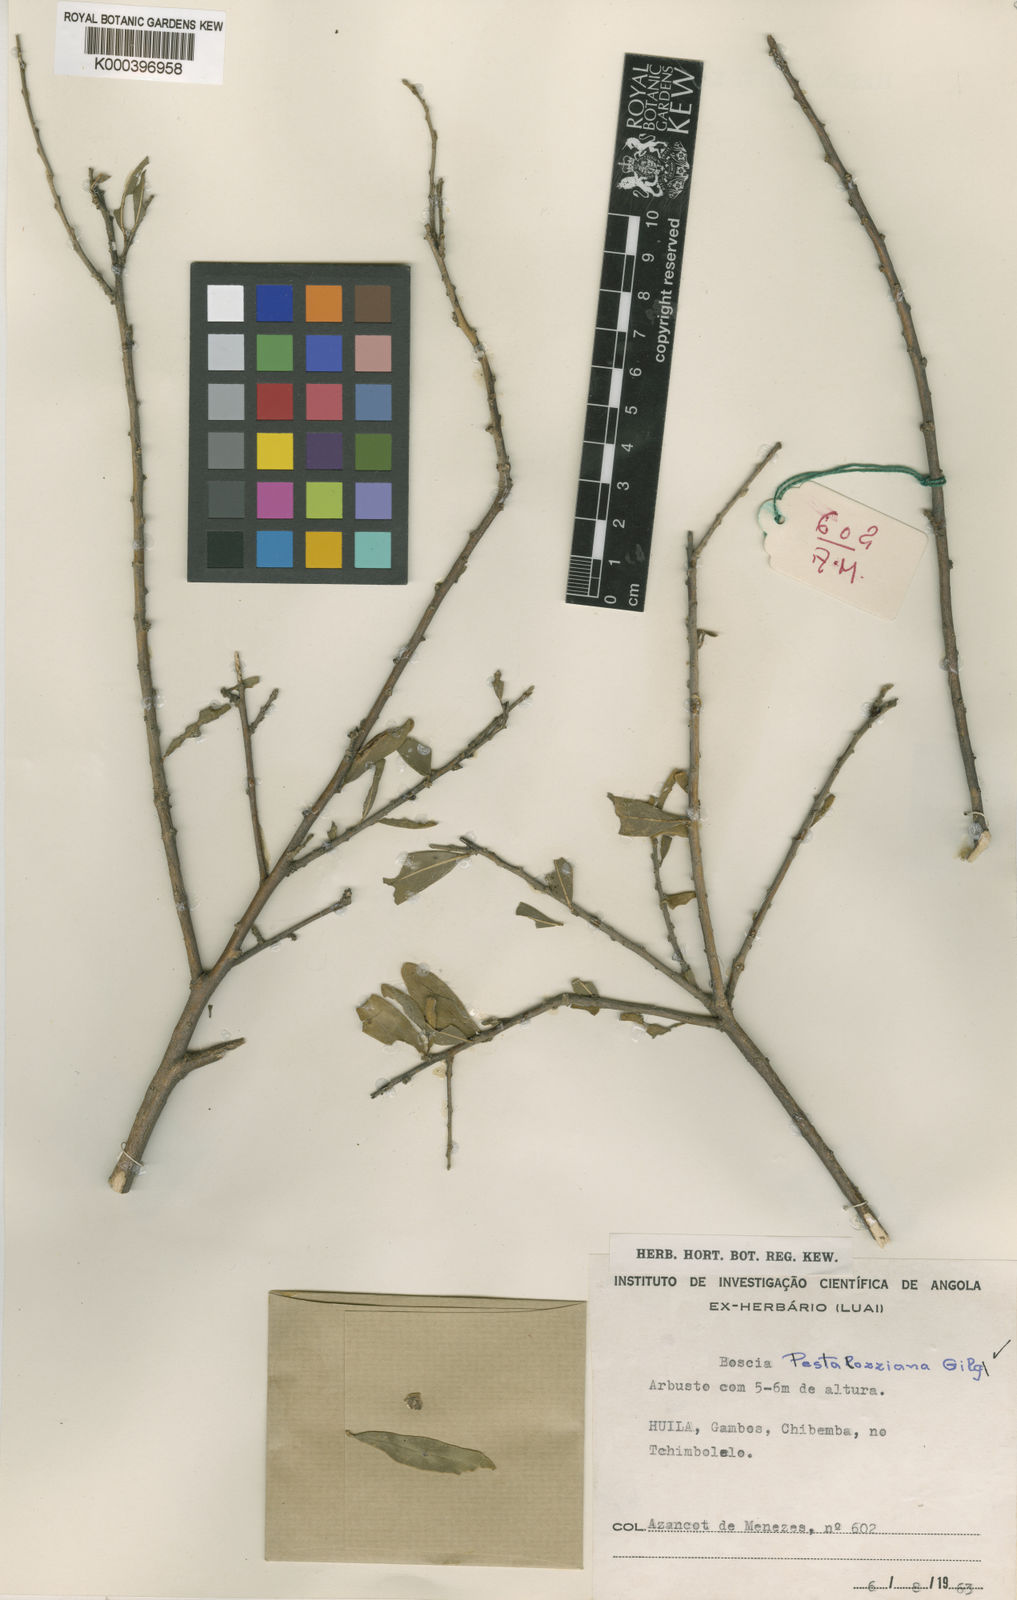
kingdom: Plantae
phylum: Tracheophyta
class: Magnoliopsida
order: Brassicales
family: Capparaceae
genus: Boscia
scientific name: Boscia pestalozziana
